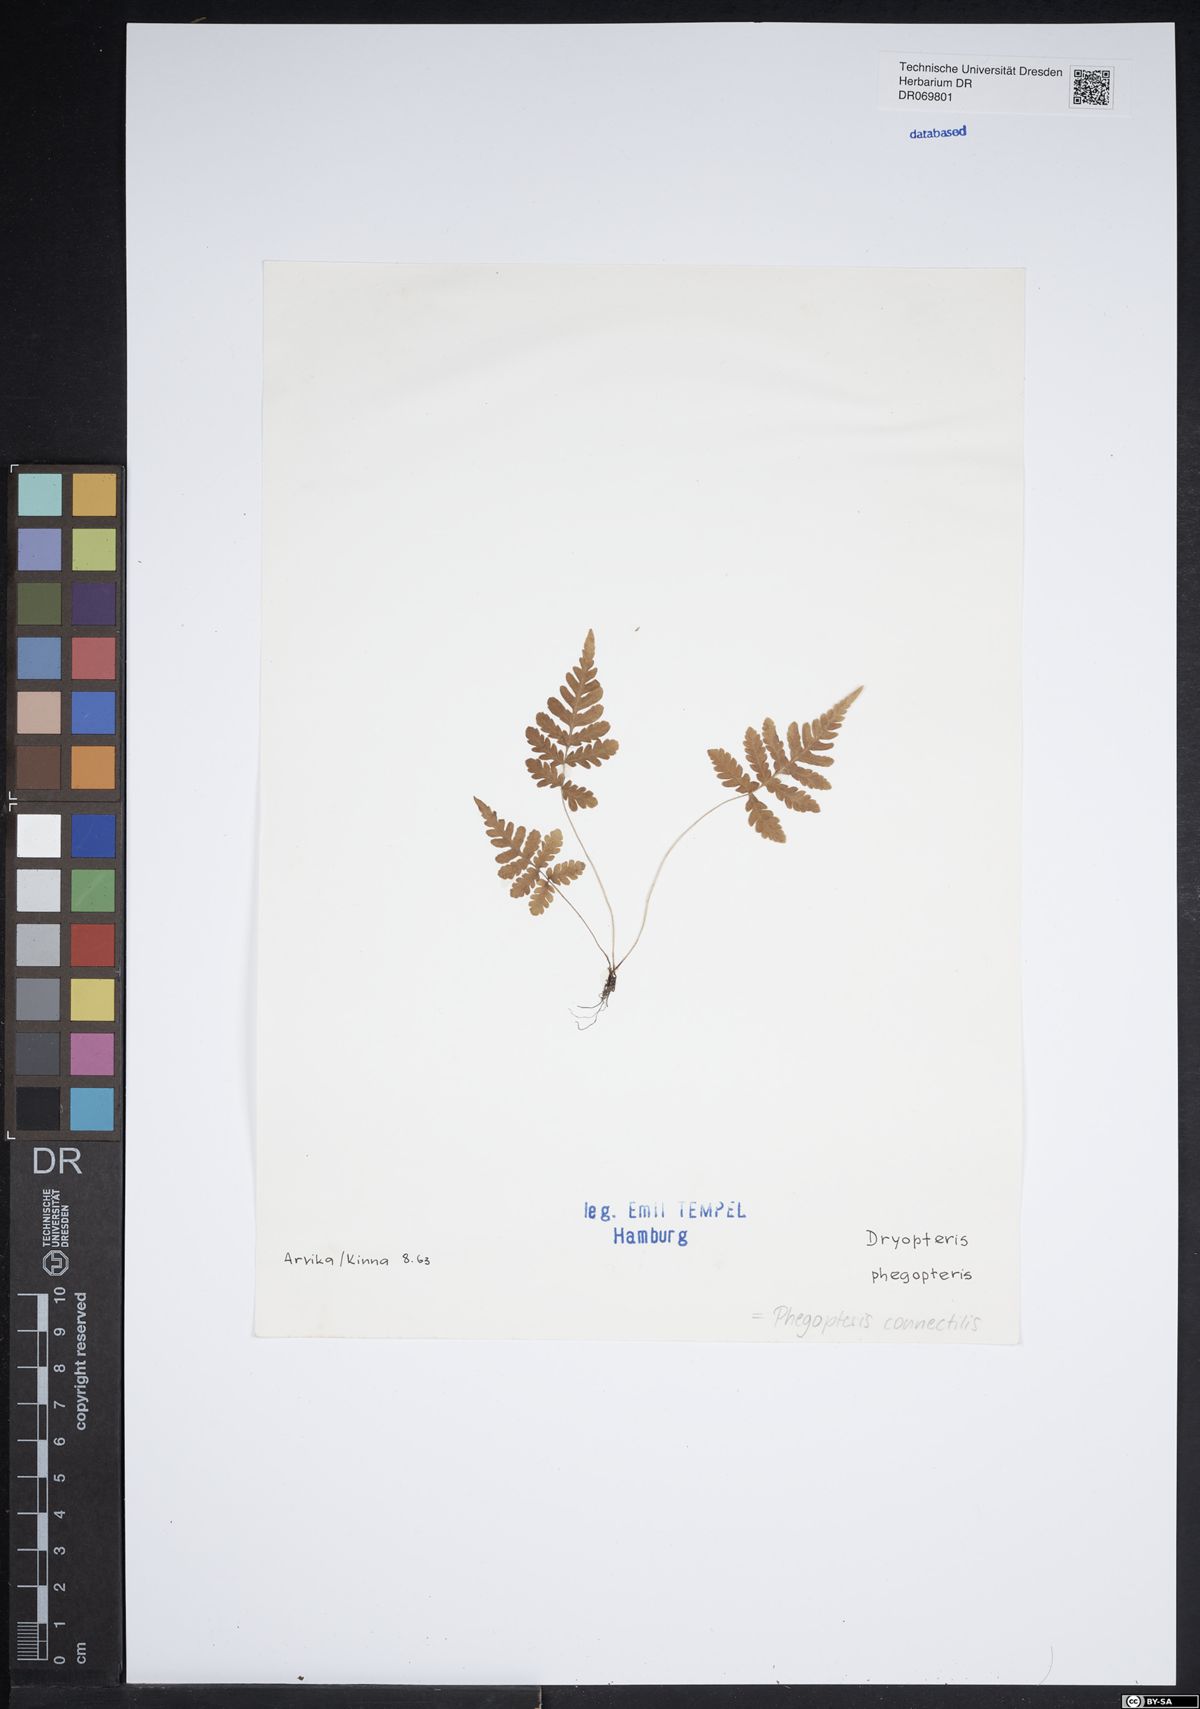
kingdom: Plantae
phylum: Tracheophyta
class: Polypodiopsida
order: Polypodiales
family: Thelypteridaceae
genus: Phegopteris
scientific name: Phegopteris connectilis
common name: Beech fern
